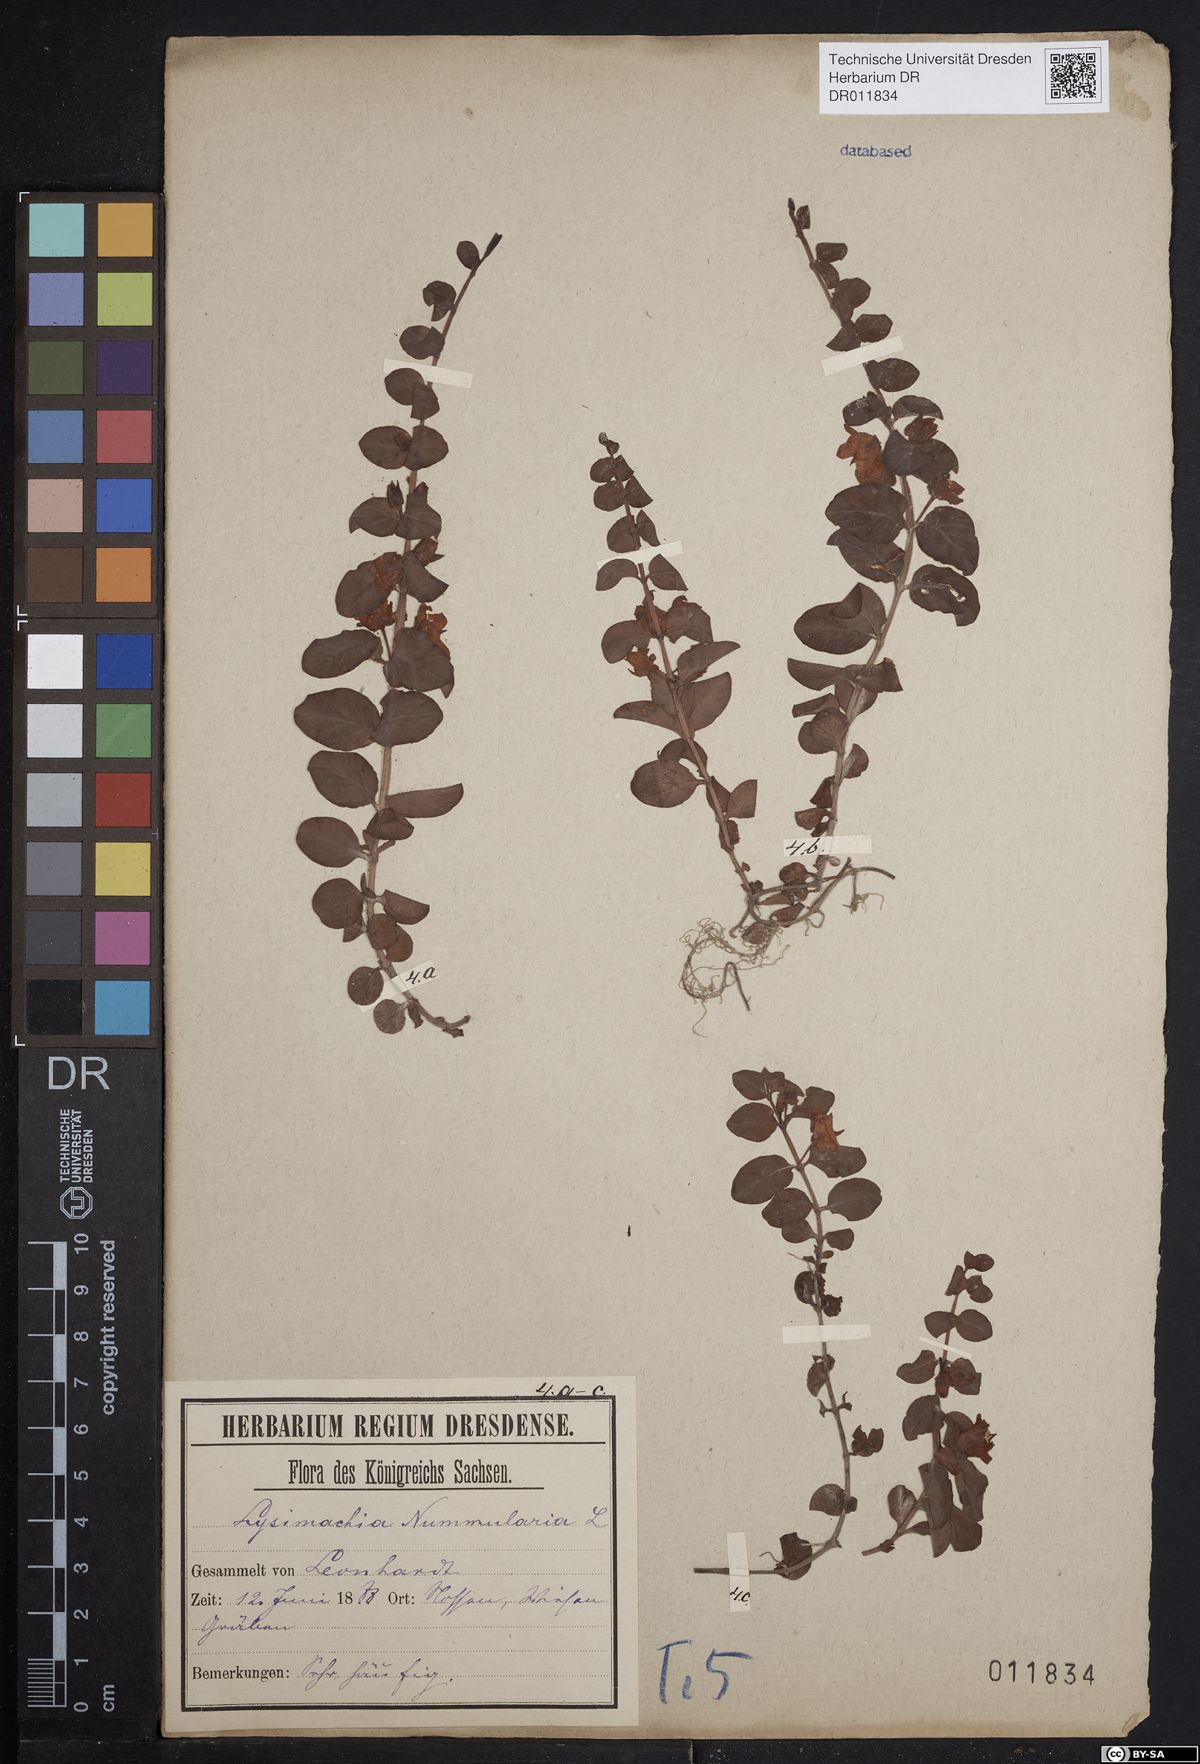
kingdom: Plantae
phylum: Tracheophyta
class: Magnoliopsida
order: Ericales
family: Primulaceae
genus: Lysimachia
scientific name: Lysimachia nummularia
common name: Moneywort
